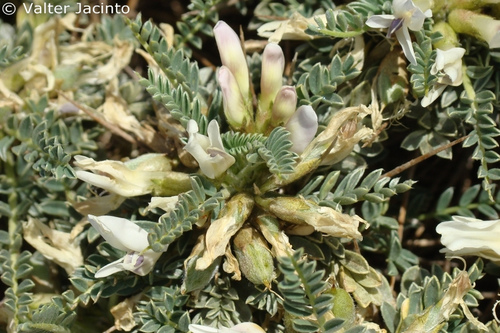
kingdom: Plantae
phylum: Tracheophyta
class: Magnoliopsida
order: Fabales
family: Fabaceae
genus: Astragalus
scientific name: Astragalus tragacantha
